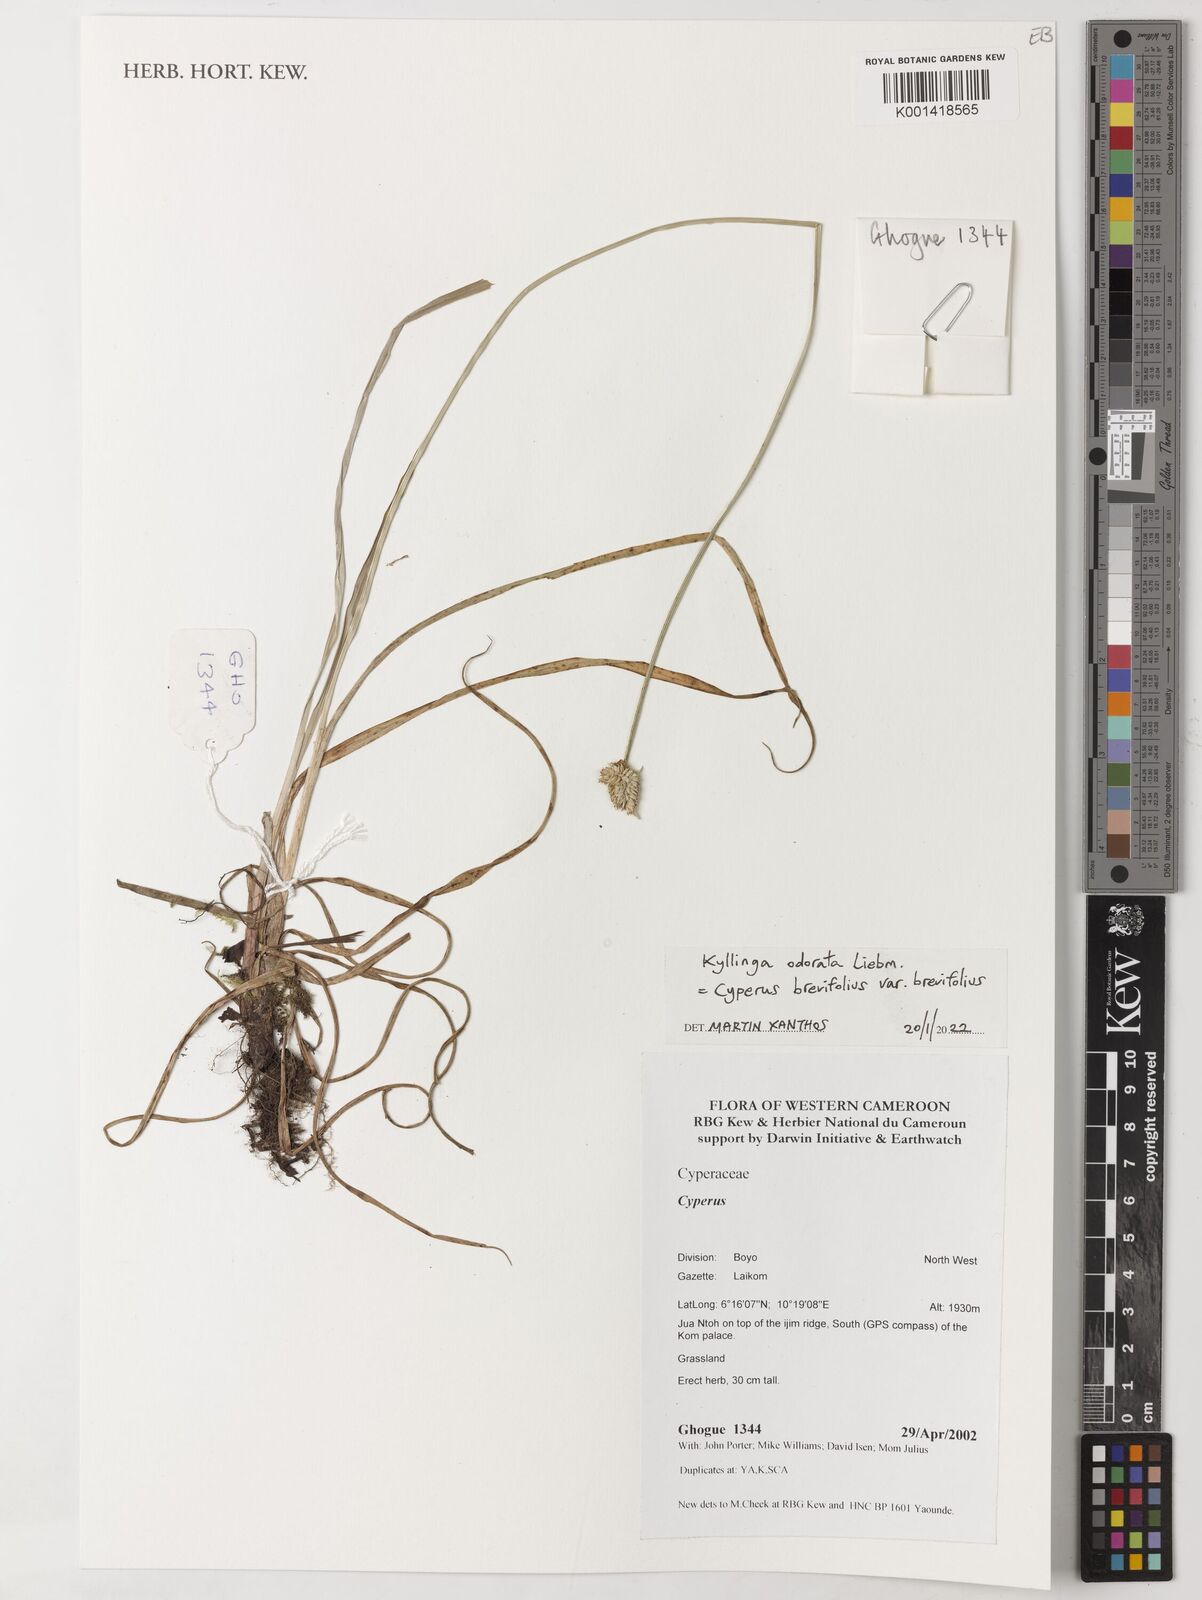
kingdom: Plantae
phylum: Tracheophyta
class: Liliopsida
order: Poales
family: Cyperaceae
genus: Cyperus
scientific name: Cyperus brevifolius
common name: Globe kyllinga
